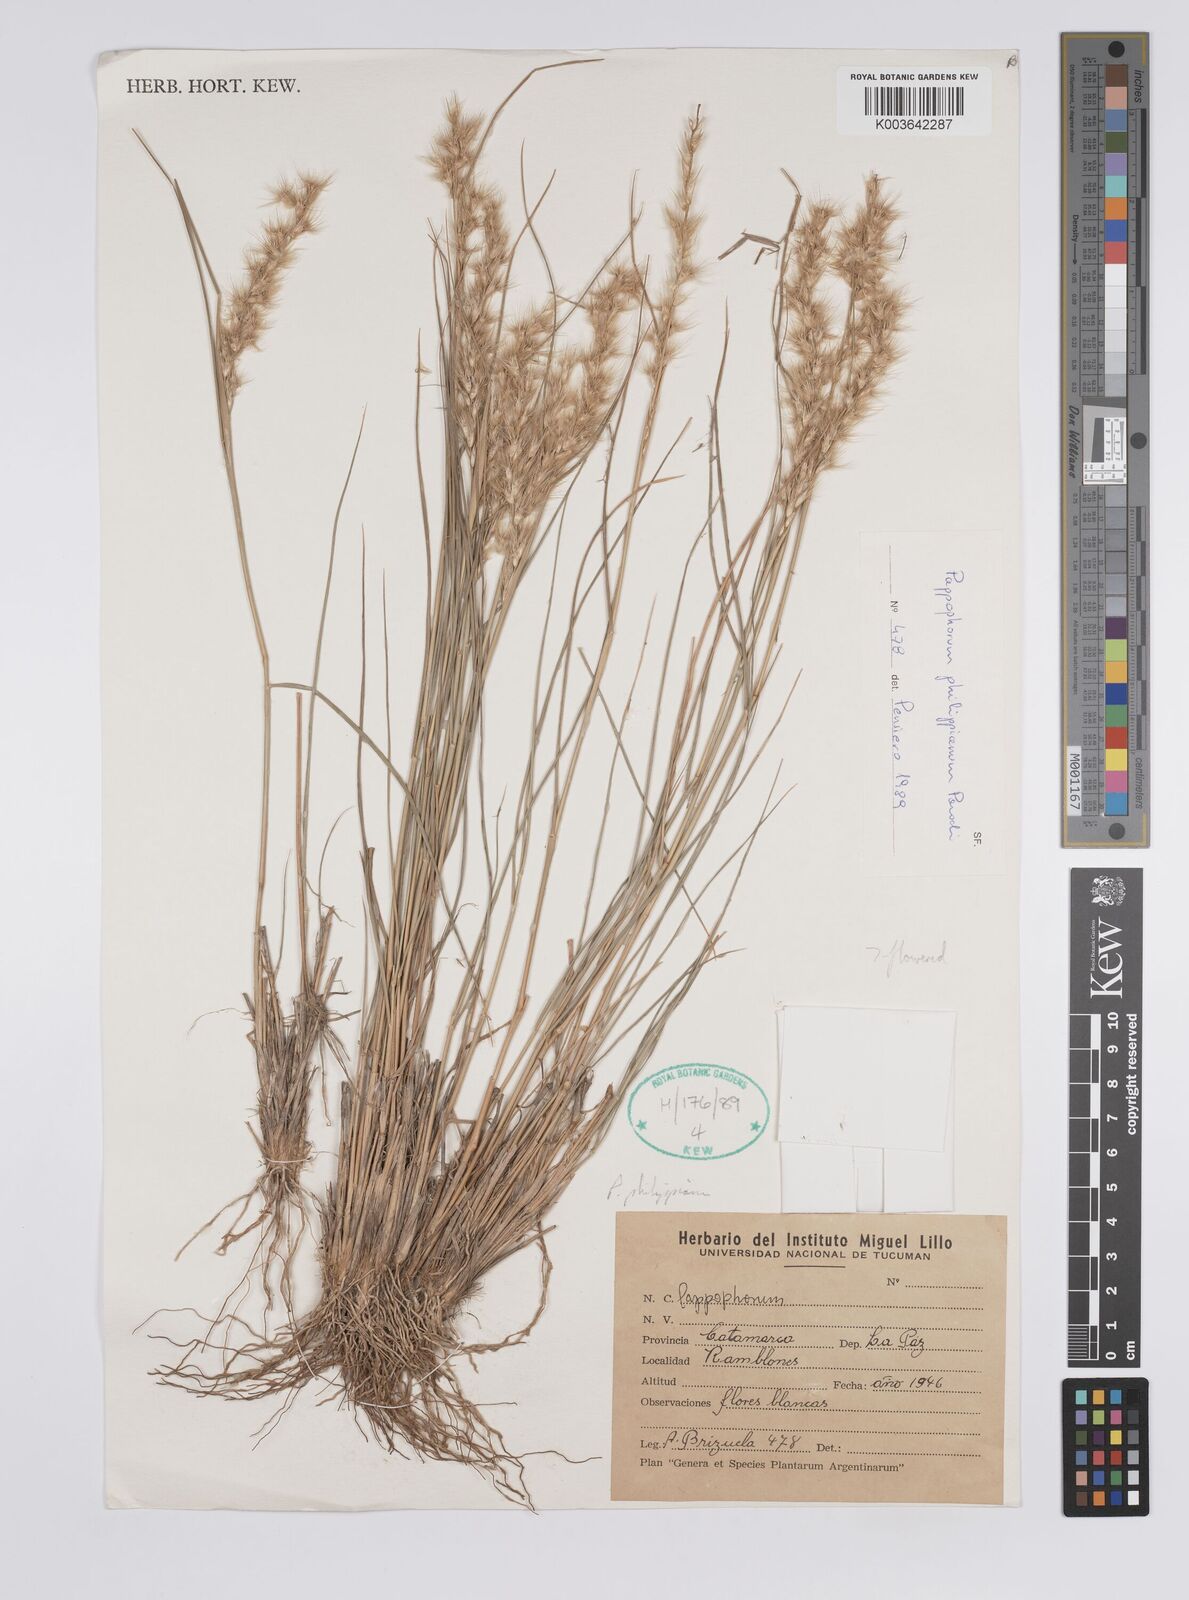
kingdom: Plantae
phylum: Tracheophyta
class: Liliopsida
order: Poales
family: Poaceae
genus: Pappophorum
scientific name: Pappophorum philippianum
